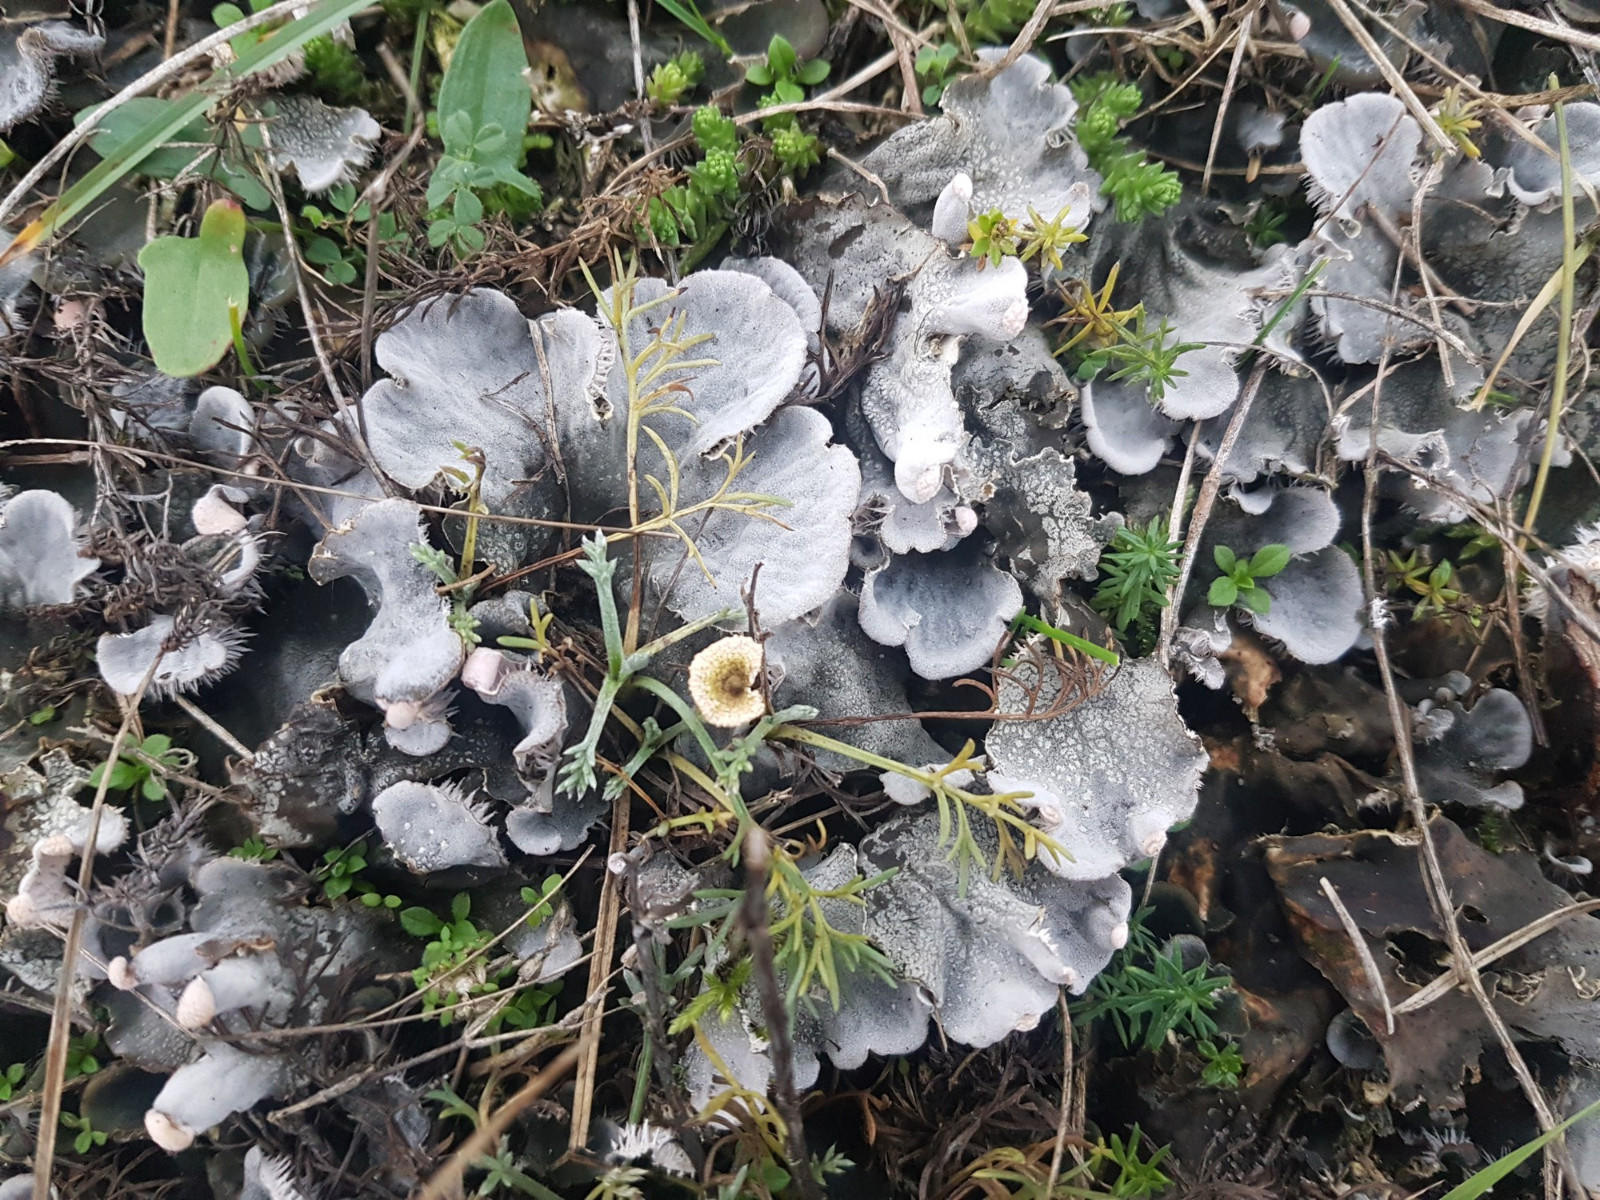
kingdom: Fungi
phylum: Ascomycota
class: Lecanoromycetes
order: Peltigerales
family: Peltigeraceae
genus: Peltigera
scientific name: Peltigera membranacea
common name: tynd skjoldlav
